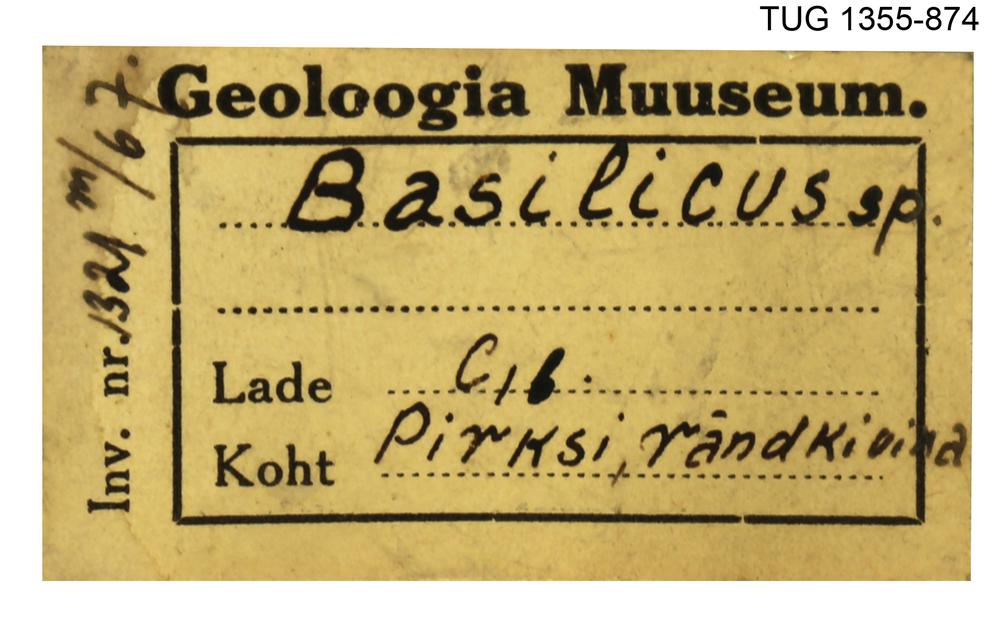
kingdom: Animalia
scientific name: Animalia
